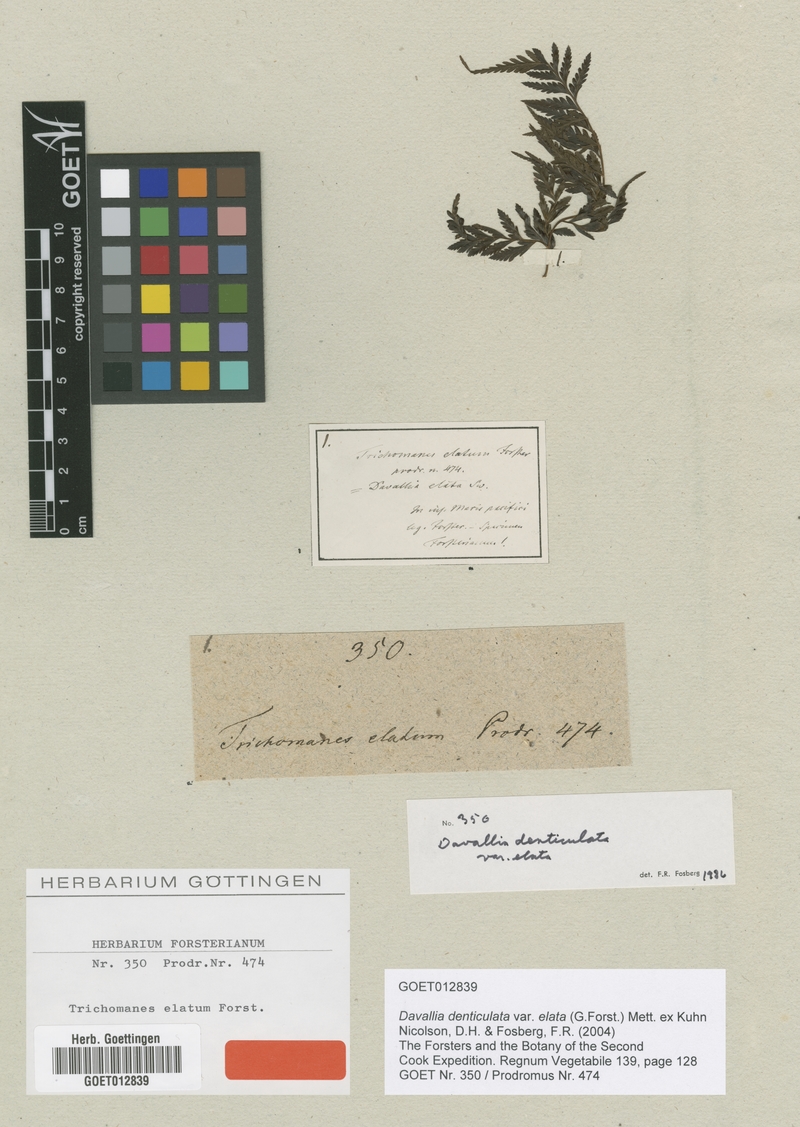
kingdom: Plantae
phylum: Tracheophyta
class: Polypodiopsida
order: Polypodiales
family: Davalliaceae
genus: Davallia
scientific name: Davallia epiphyll
